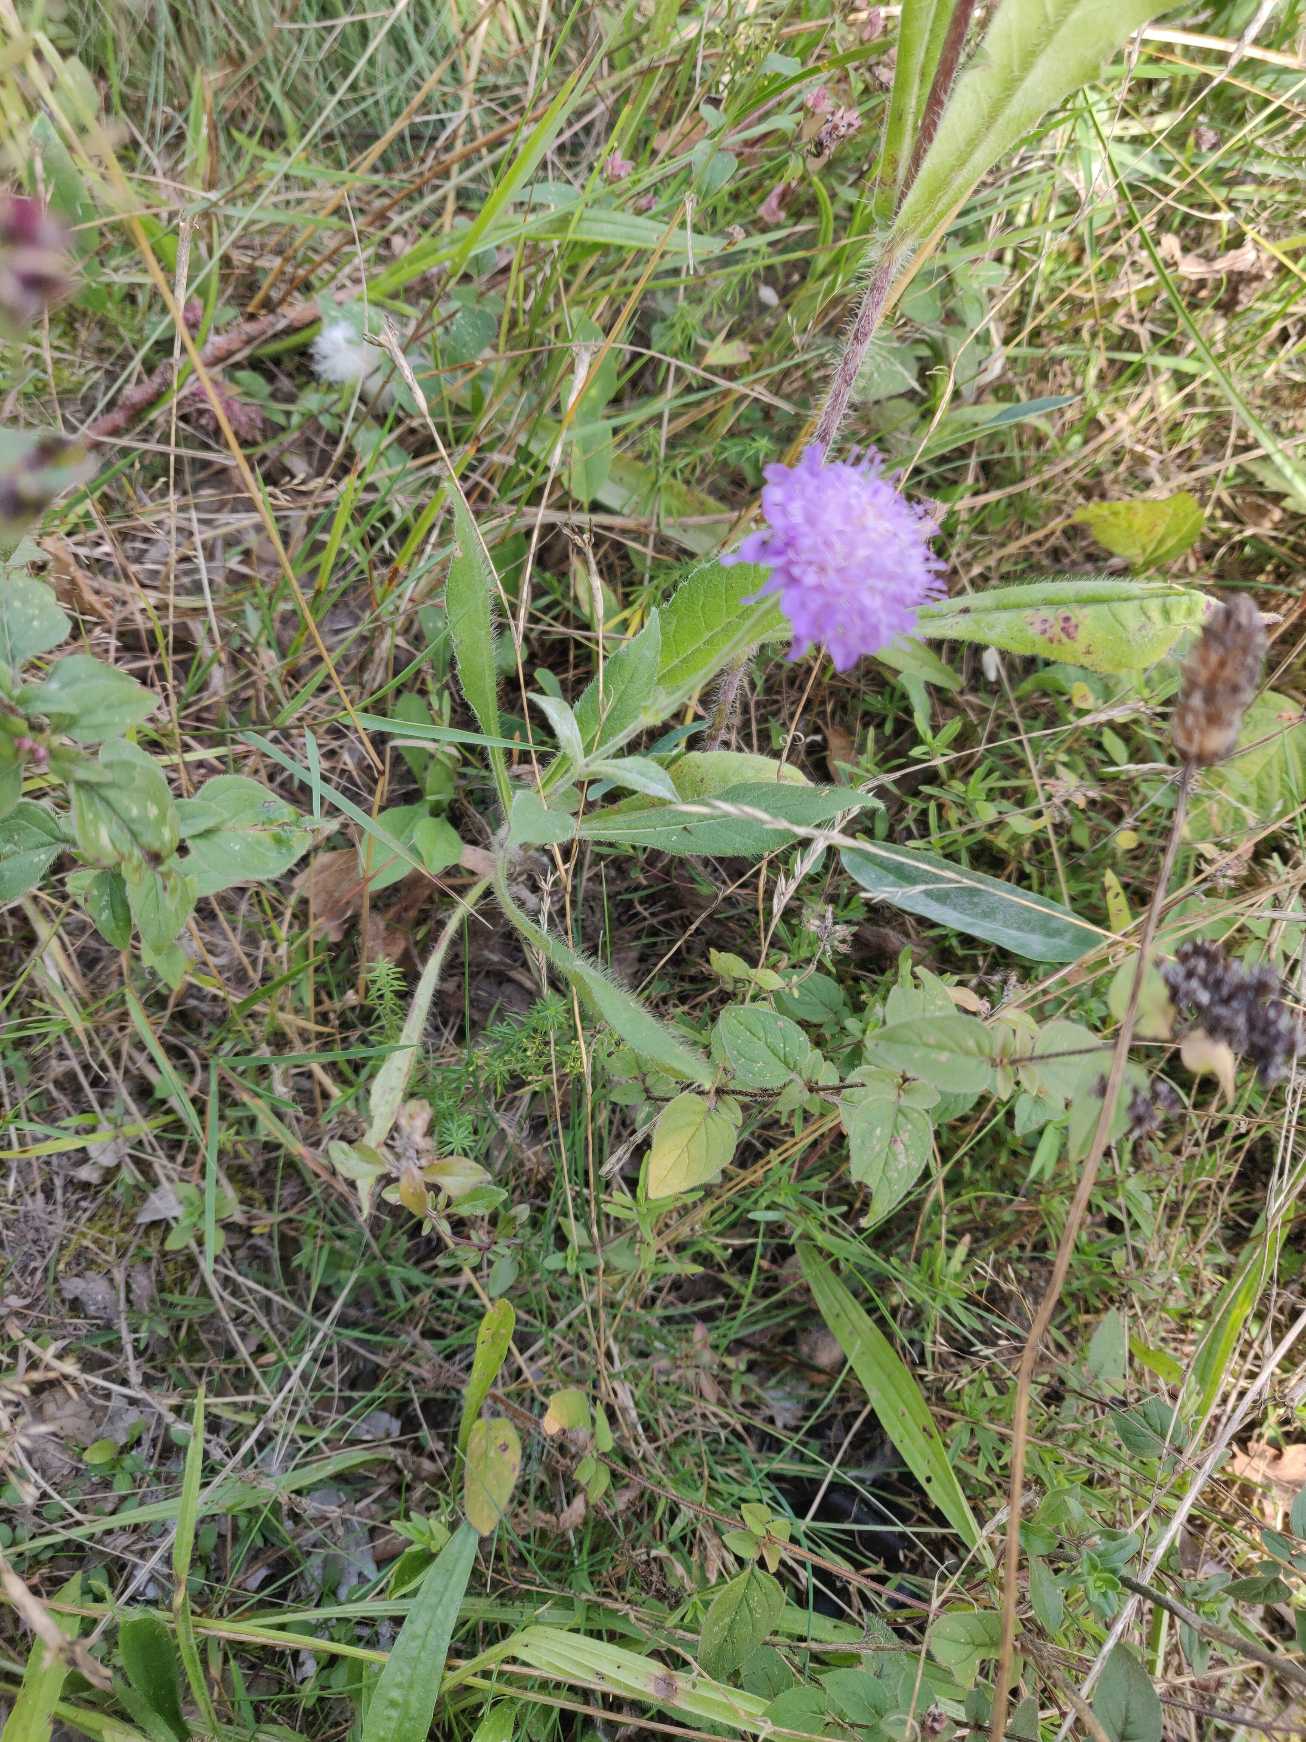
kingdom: Plantae
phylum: Tracheophyta
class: Magnoliopsida
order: Dipsacales
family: Caprifoliaceae
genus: Knautia
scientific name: Knautia arvensis
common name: Blåhat
